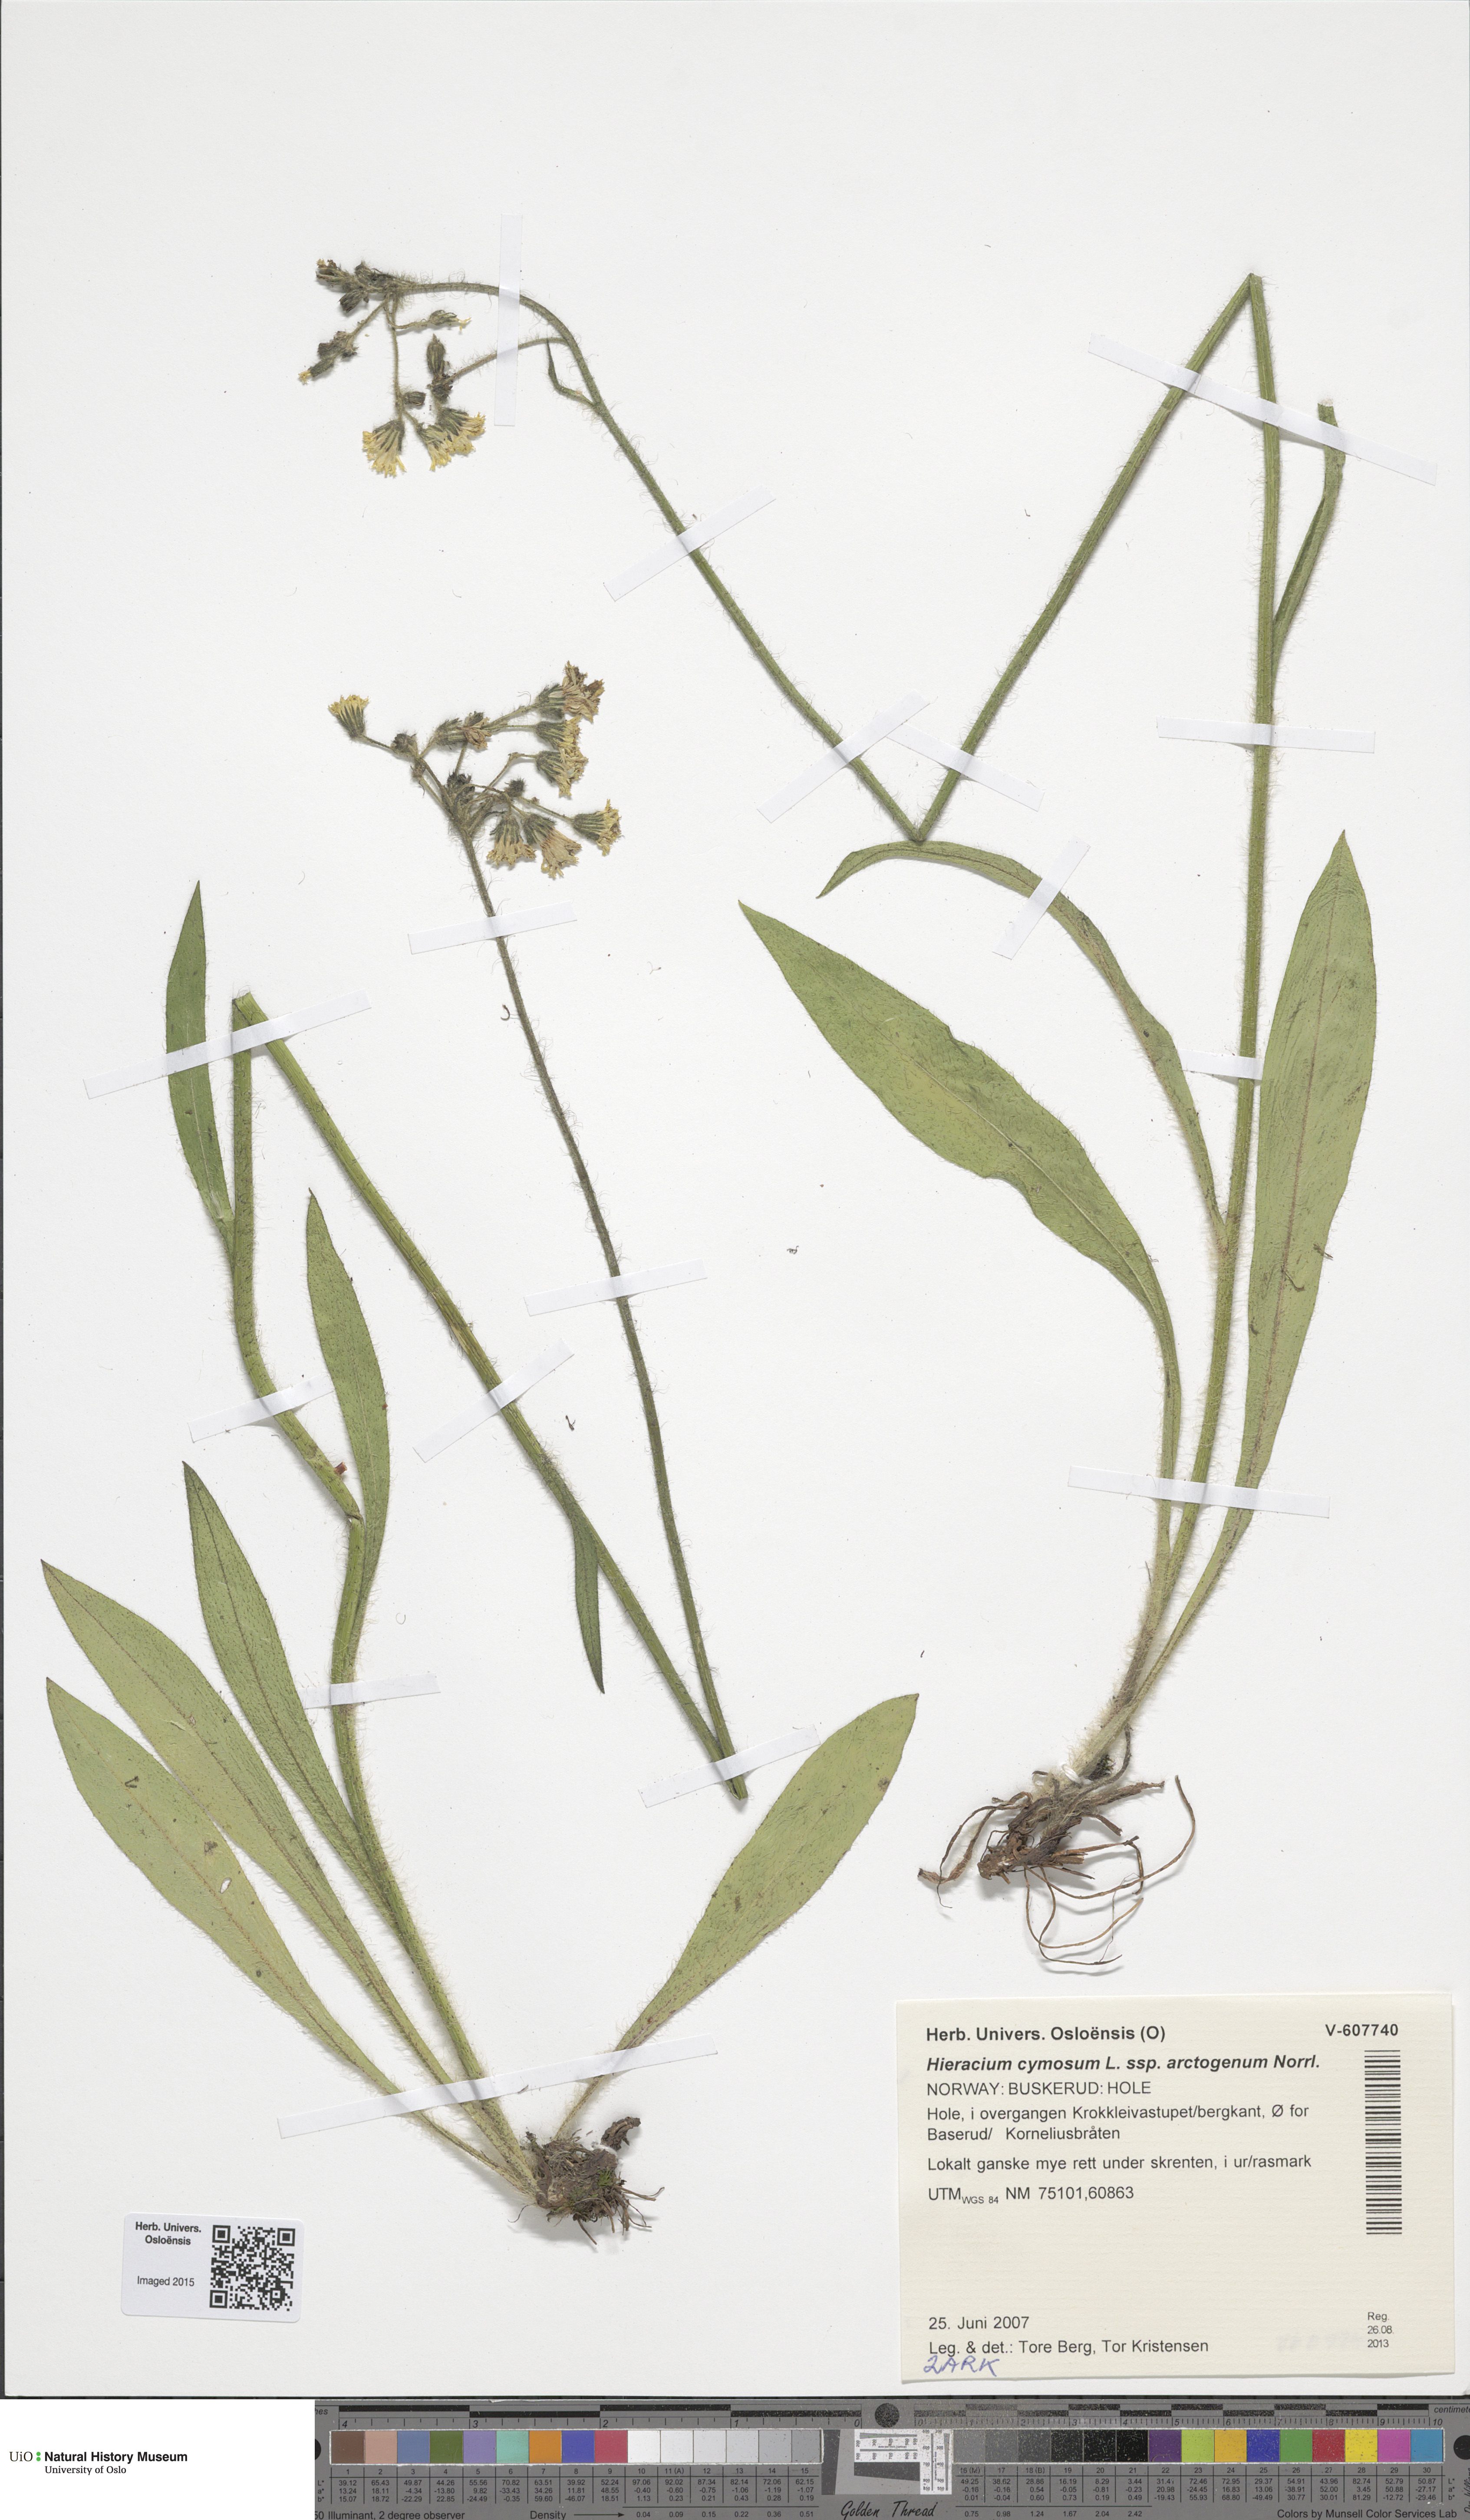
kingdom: Plantae
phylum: Tracheophyta
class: Magnoliopsida
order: Asterales
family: Asteraceae
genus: Pilosella
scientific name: Pilosella cymosa
